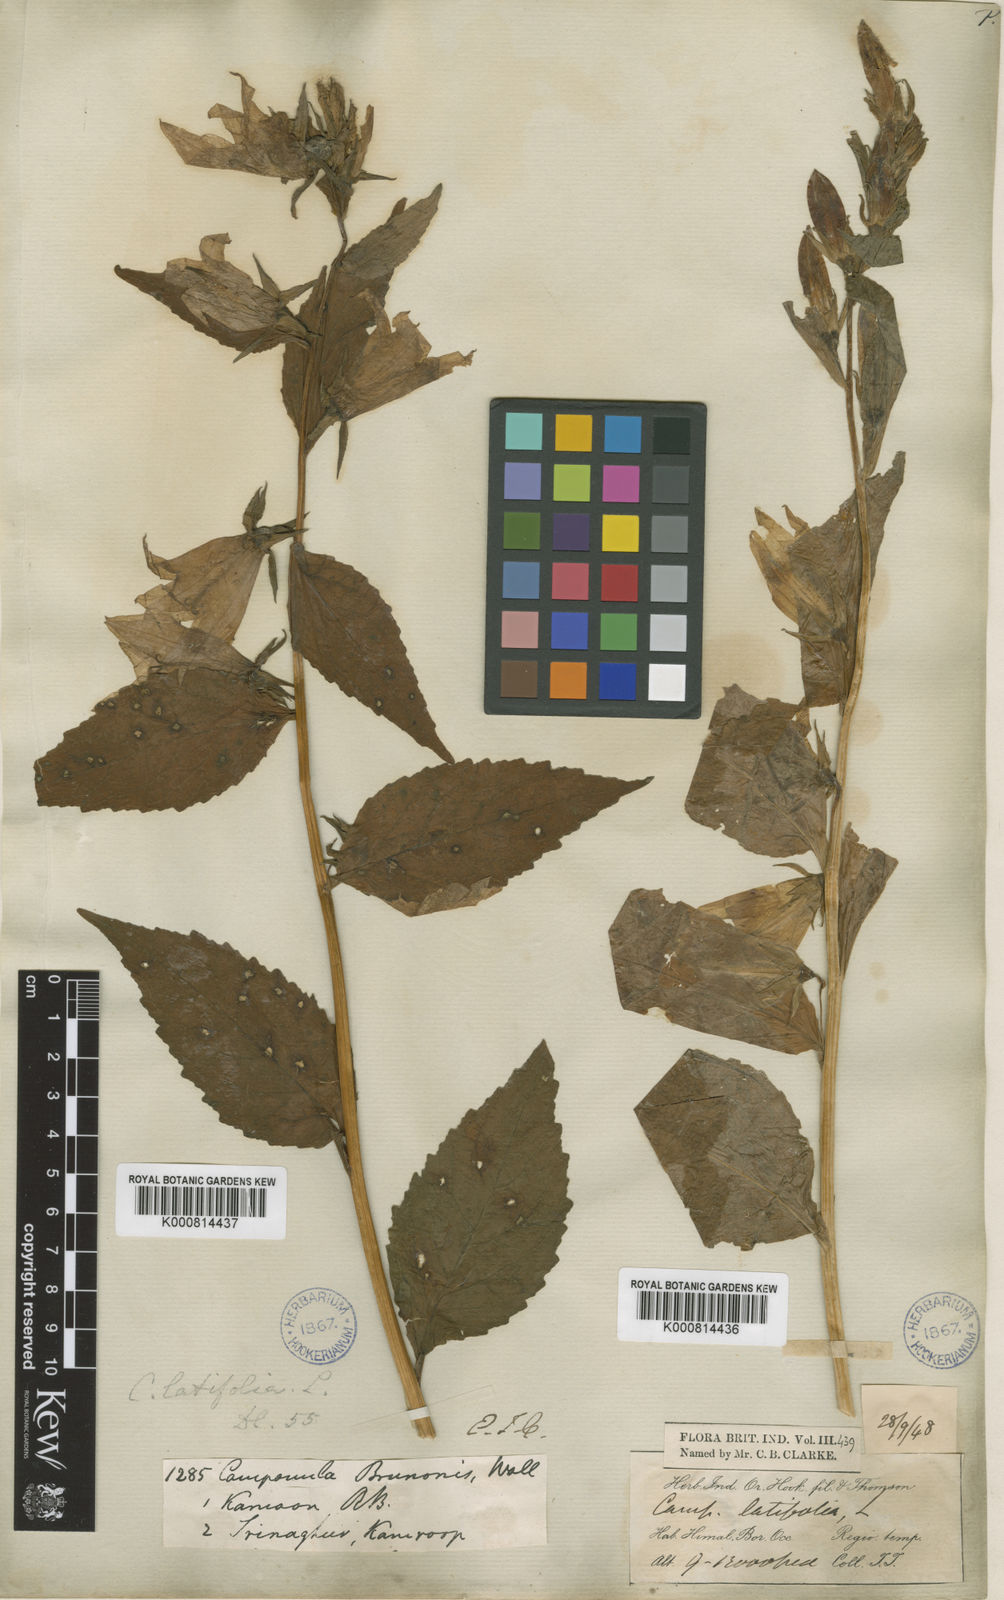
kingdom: Plantae
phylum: Tracheophyta
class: Magnoliopsida
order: Asterales
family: Campanulaceae
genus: Campanula
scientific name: Campanula latifolia
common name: Giant bellflower
